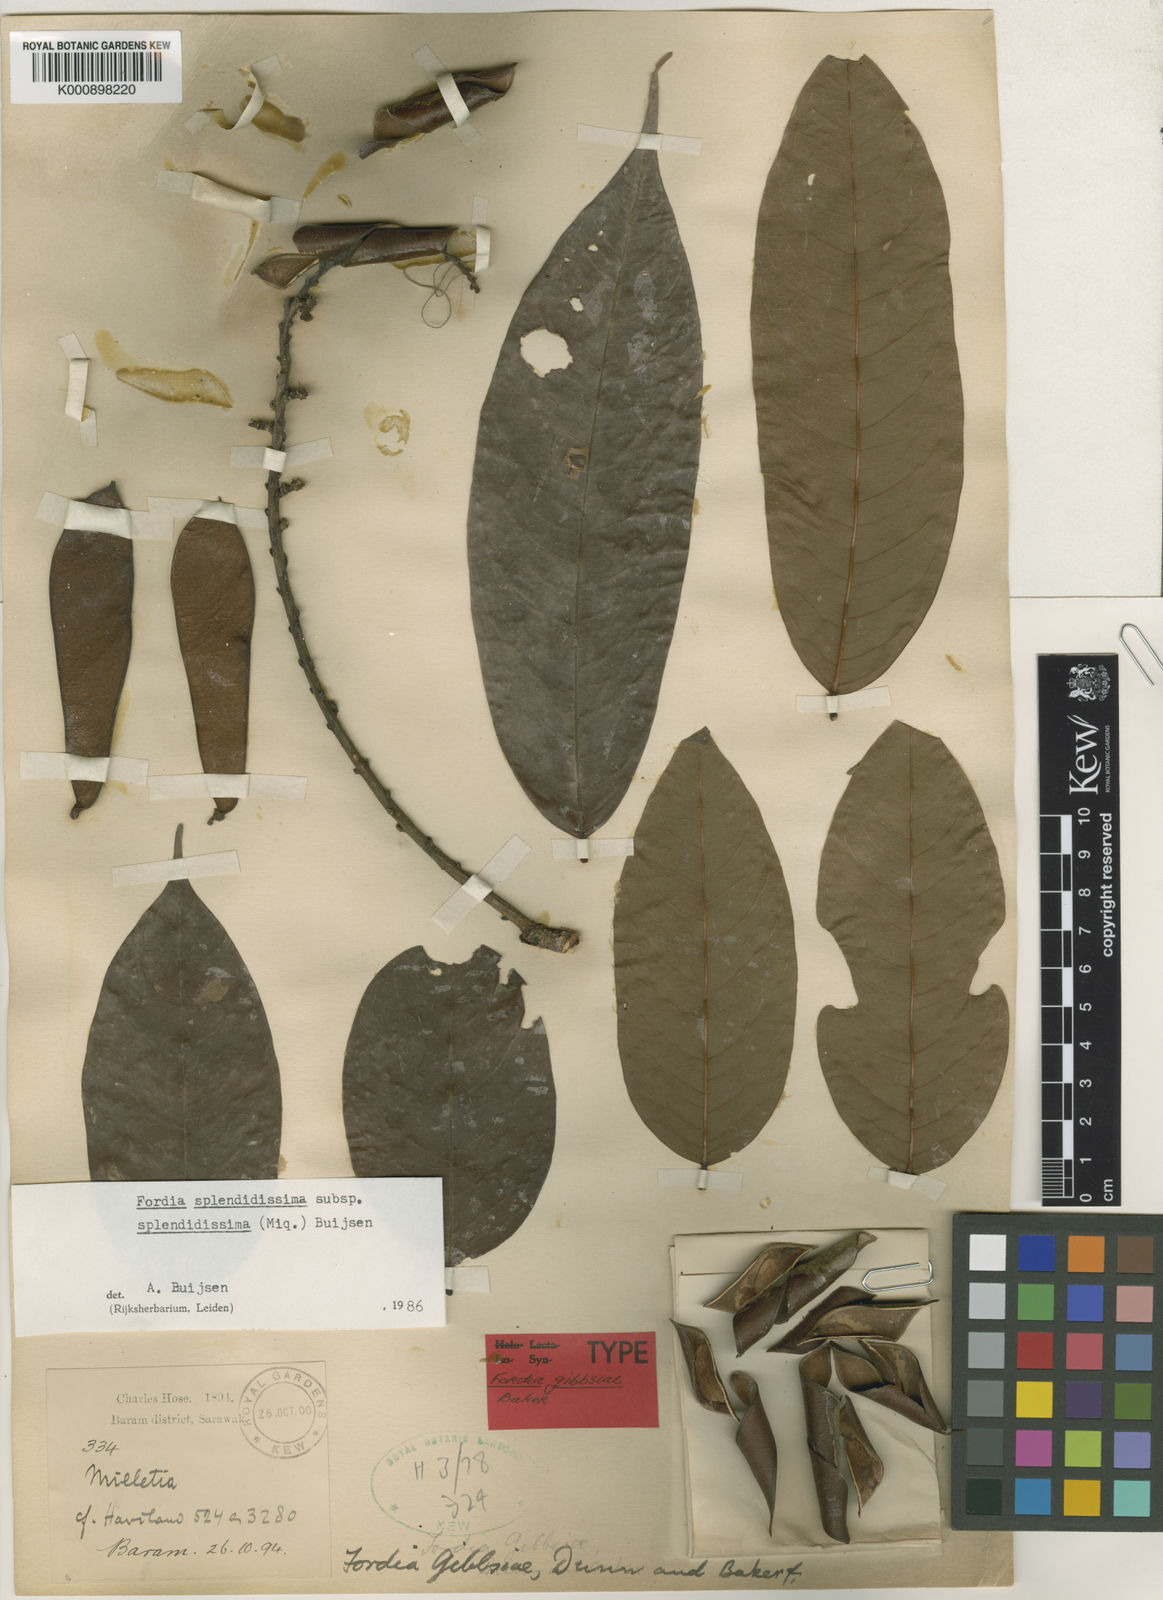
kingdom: Plantae
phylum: Tracheophyta
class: Magnoliopsida
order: Fabales
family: Fabaceae
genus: Fordia
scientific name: Fordia splendidissima
